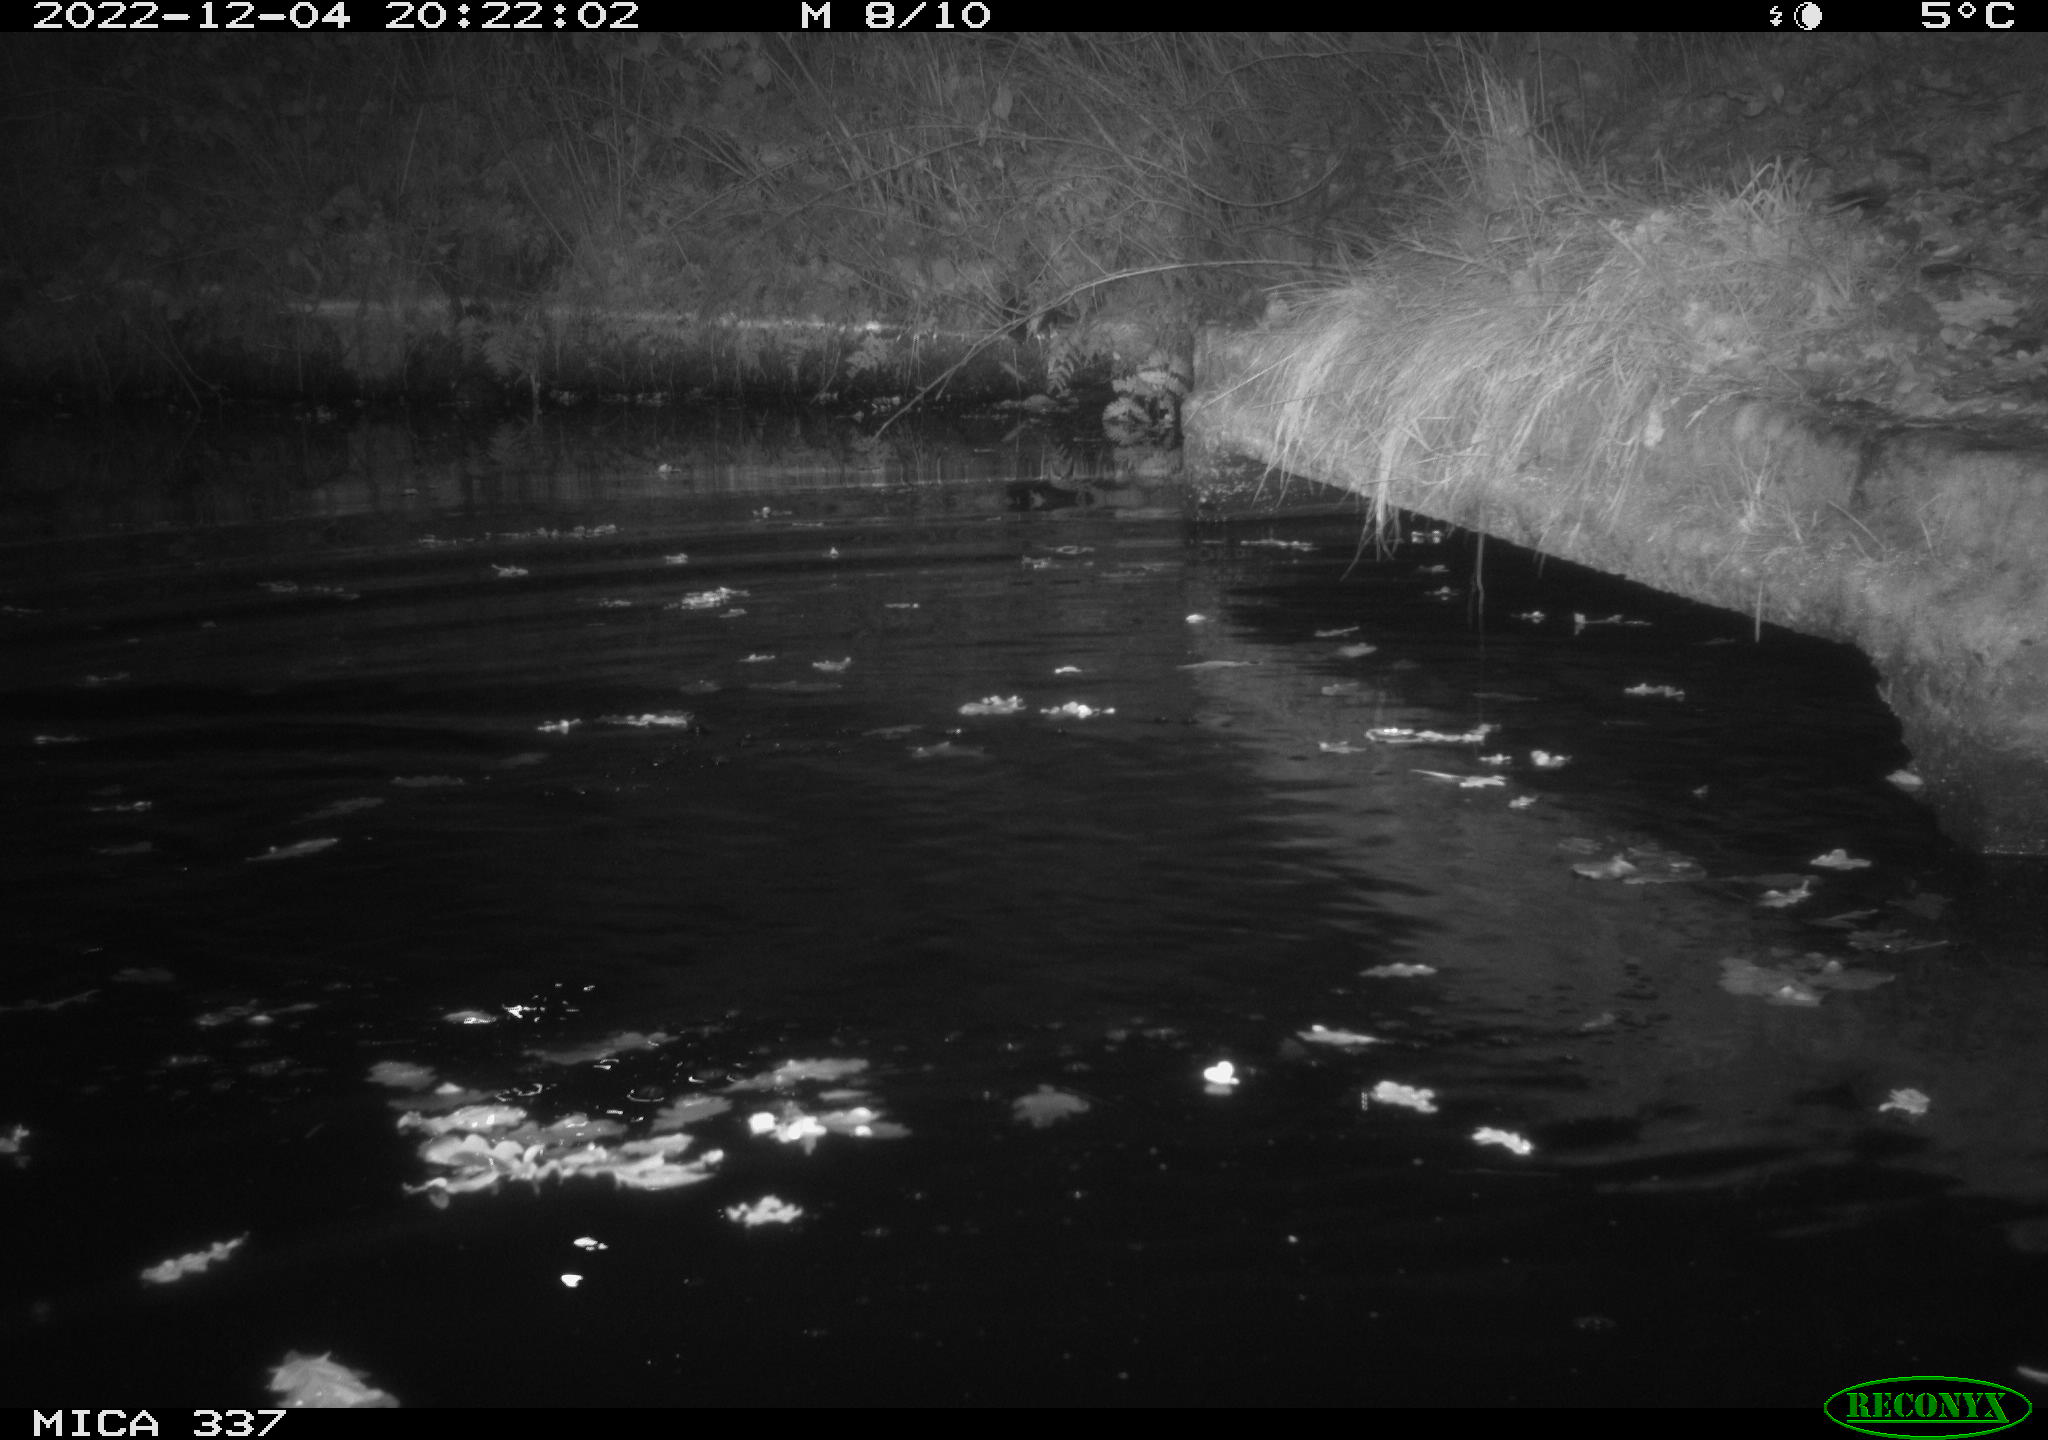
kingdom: Animalia
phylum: Chordata
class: Aves
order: Anseriformes
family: Anatidae
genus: Anas
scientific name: Anas
